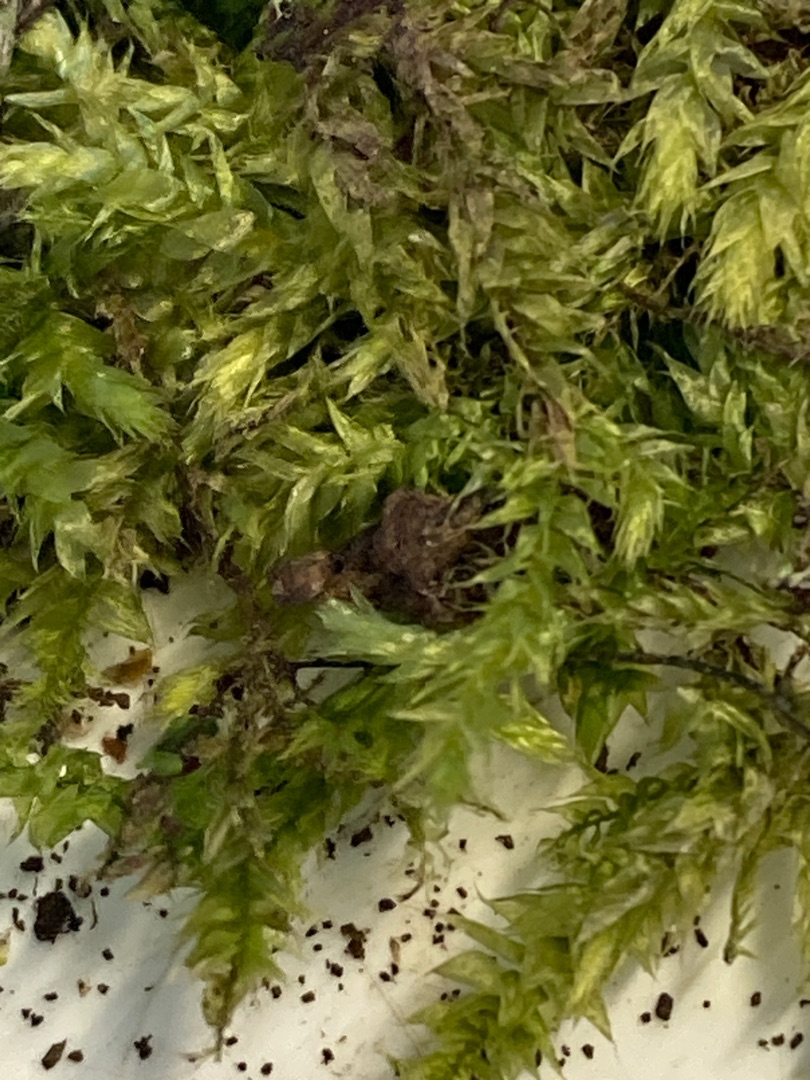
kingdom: Plantae
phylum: Bryophyta
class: Bryopsida
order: Hypnales
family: Brachytheciaceae
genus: Brachythecium
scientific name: Brachythecium rutabulum
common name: Almindelig kortkapsel
